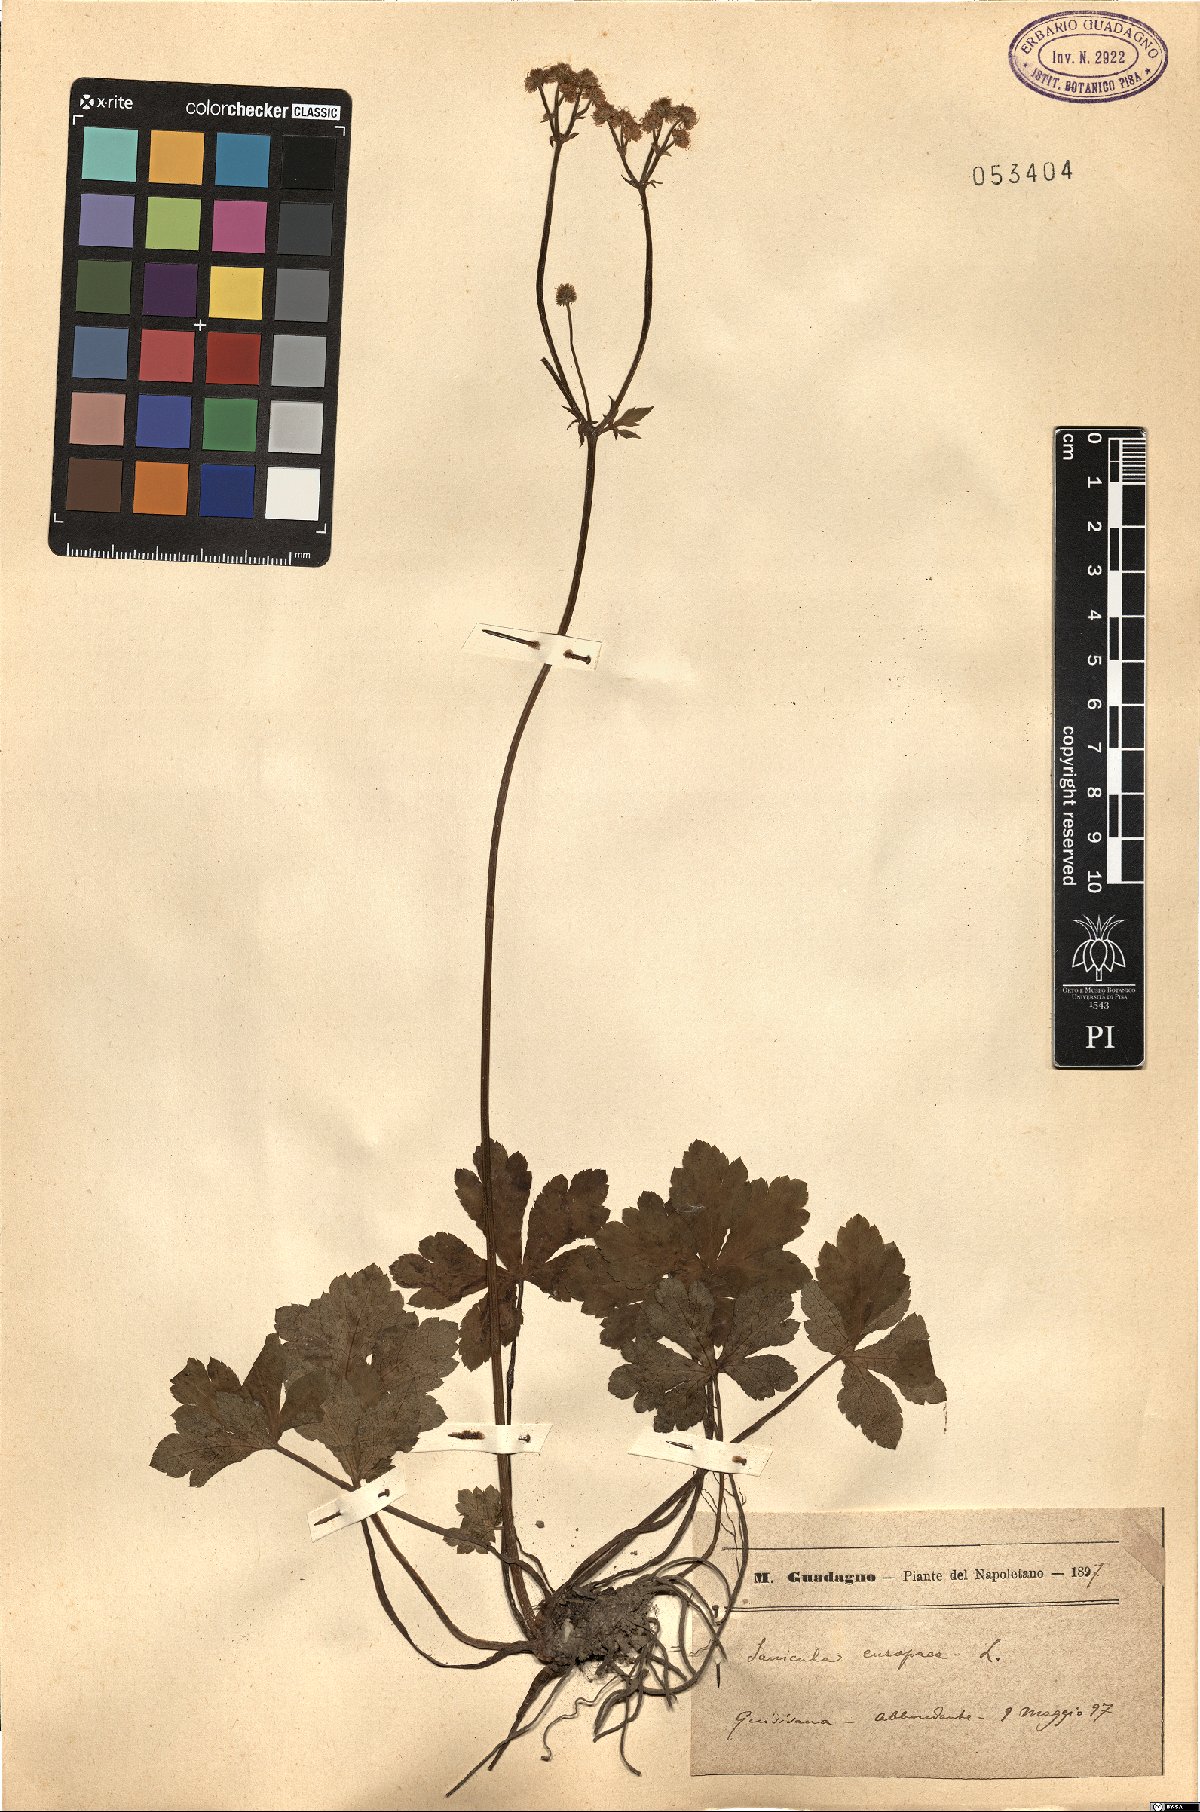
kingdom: Plantae
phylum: Tracheophyta
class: Magnoliopsida
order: Apiales
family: Apiaceae
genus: Sanicula
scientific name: Sanicula europaea
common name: Sanicle
